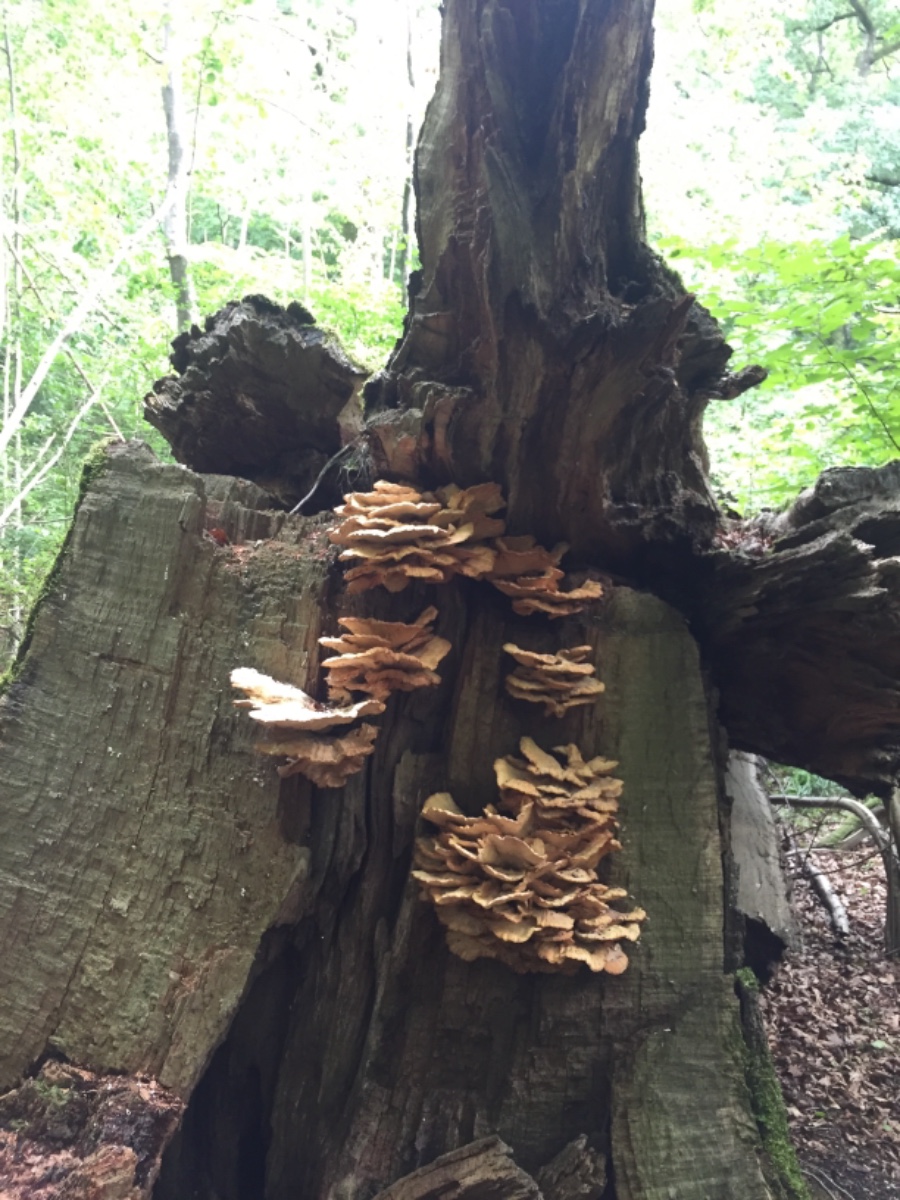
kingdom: Fungi
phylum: Basidiomycota
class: Agaricomycetes
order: Polyporales
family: Laetiporaceae
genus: Laetiporus
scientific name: Laetiporus sulphureus
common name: svovlporesvamp
